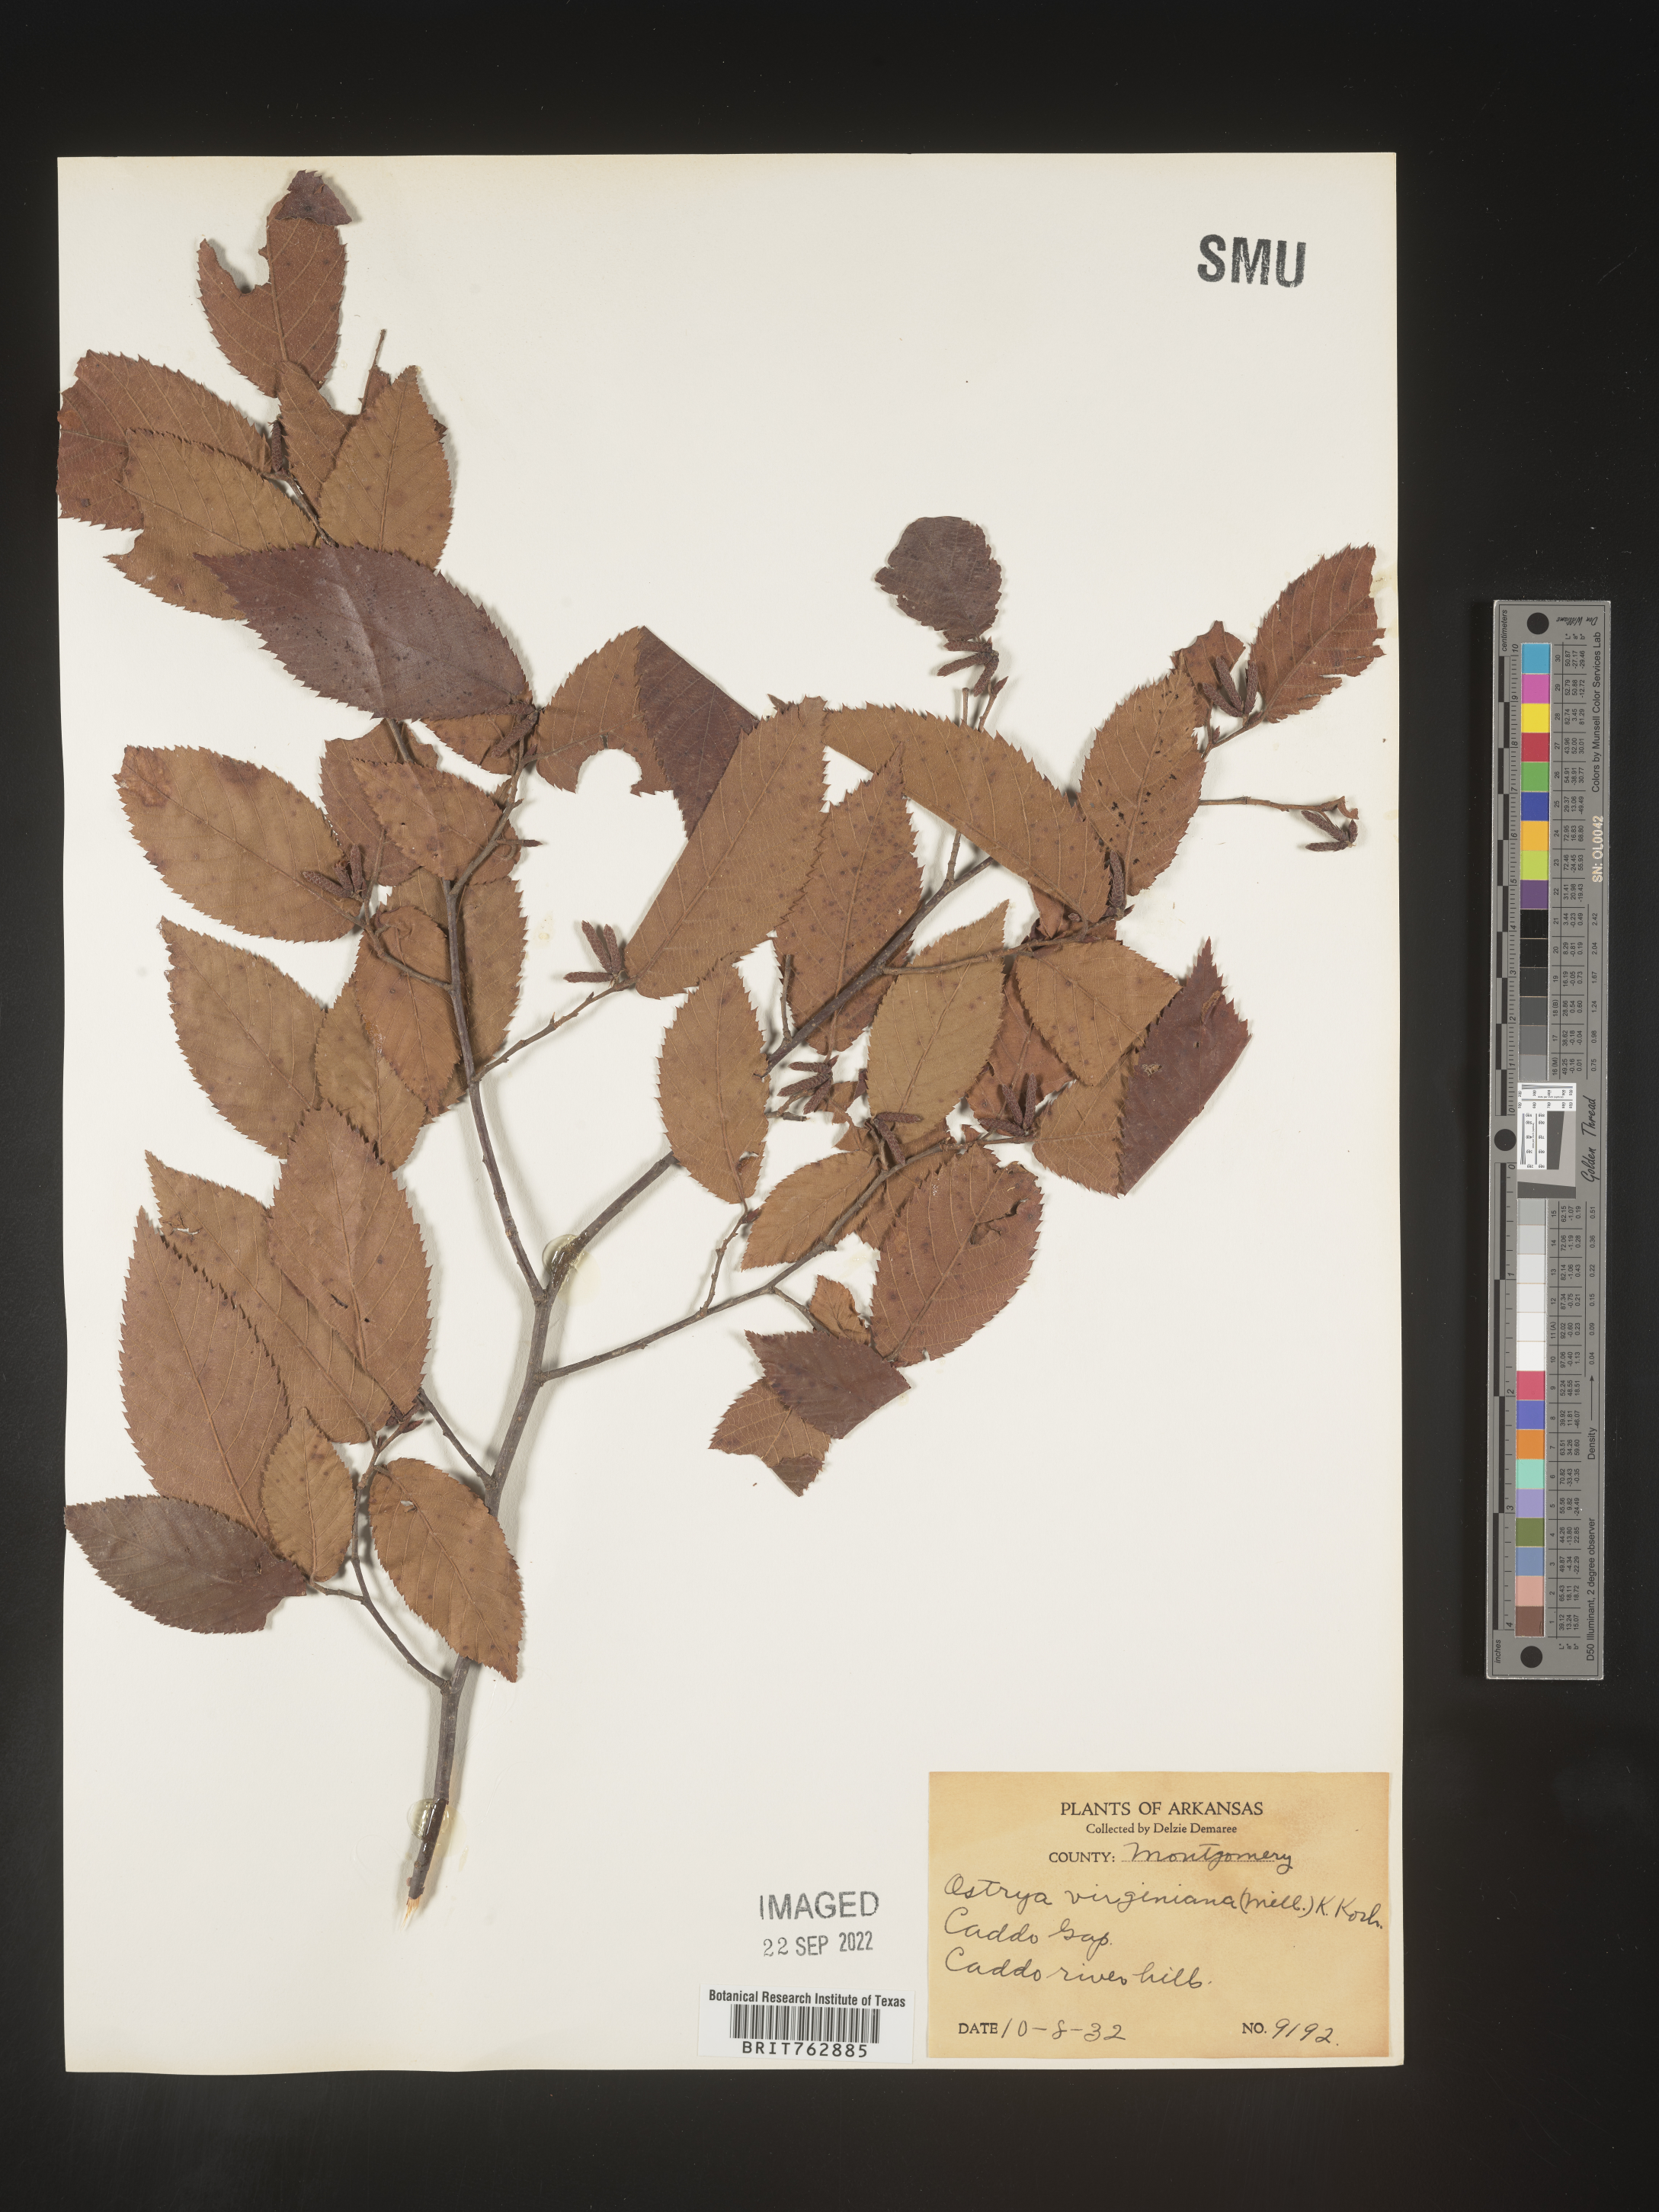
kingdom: Plantae
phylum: Tracheophyta
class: Magnoliopsida
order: Fagales
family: Betulaceae
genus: Ostrya
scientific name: Ostrya virginiana
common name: Ironwood
